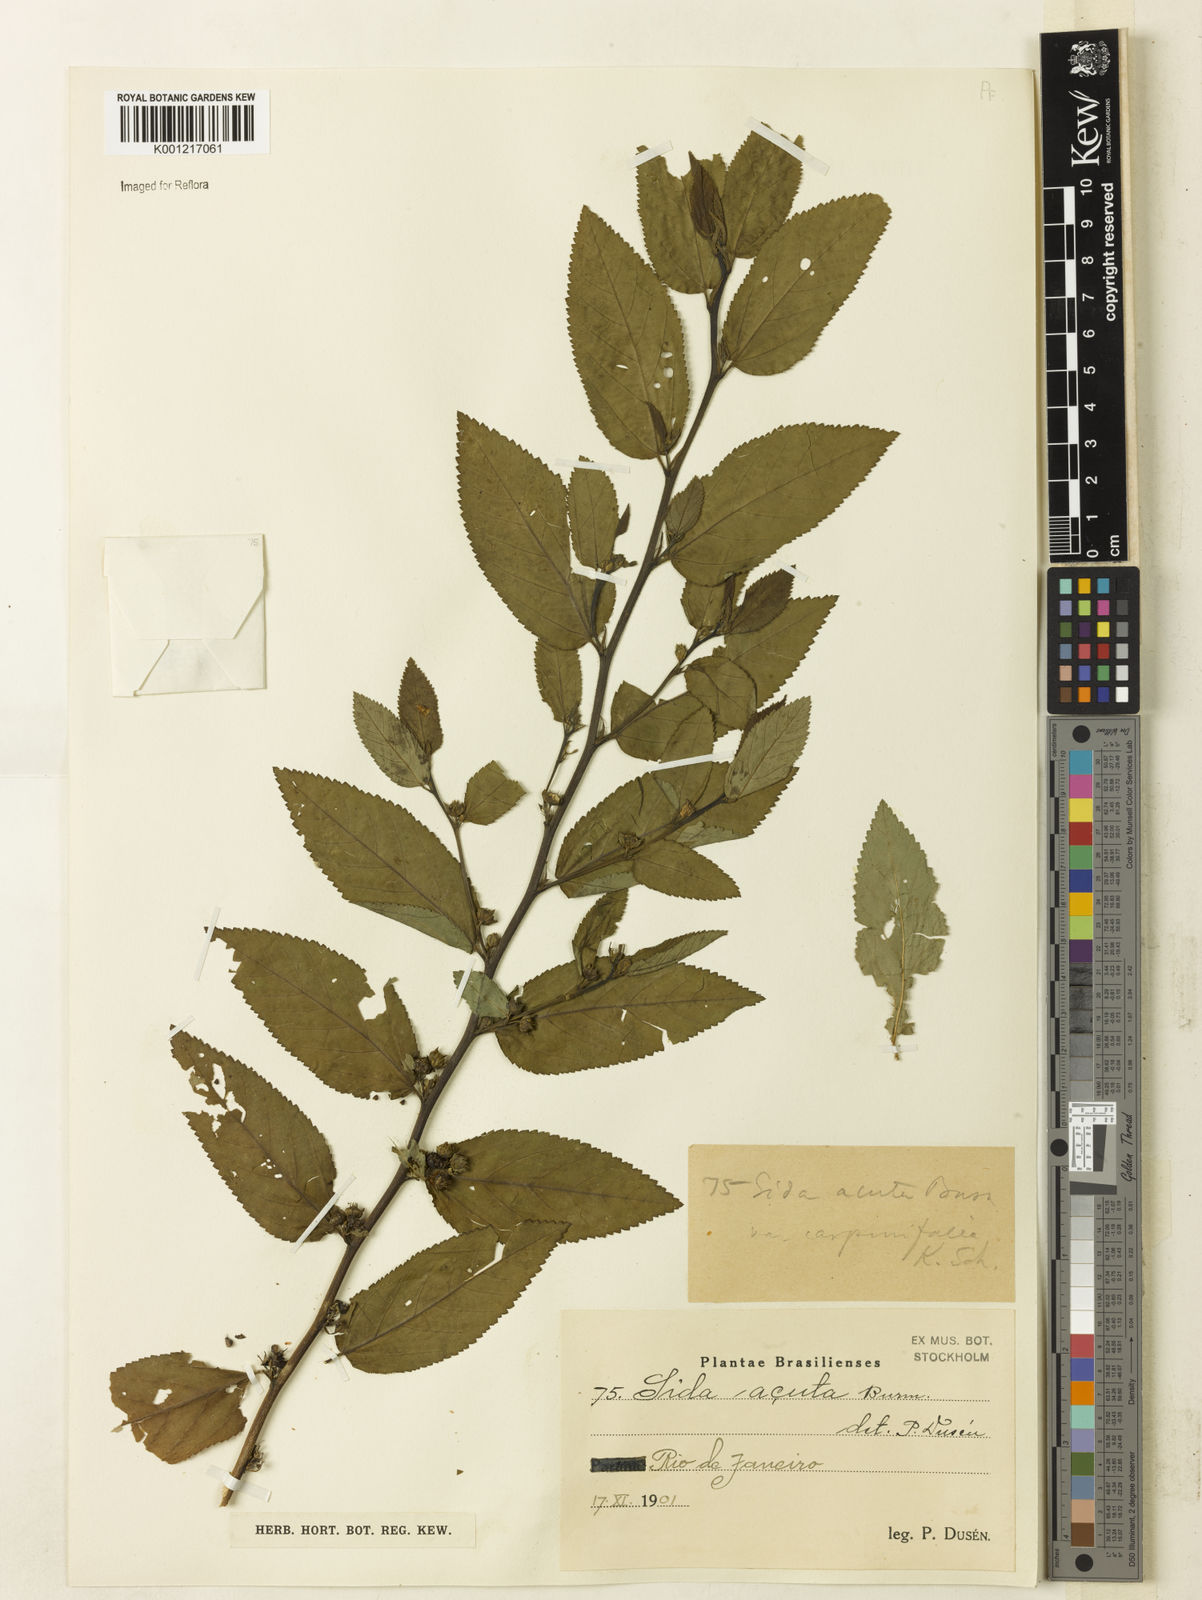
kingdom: Plantae
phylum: Tracheophyta
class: Magnoliopsida
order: Malvales
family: Malvaceae
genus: Sida
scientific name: Sida planicaulis
